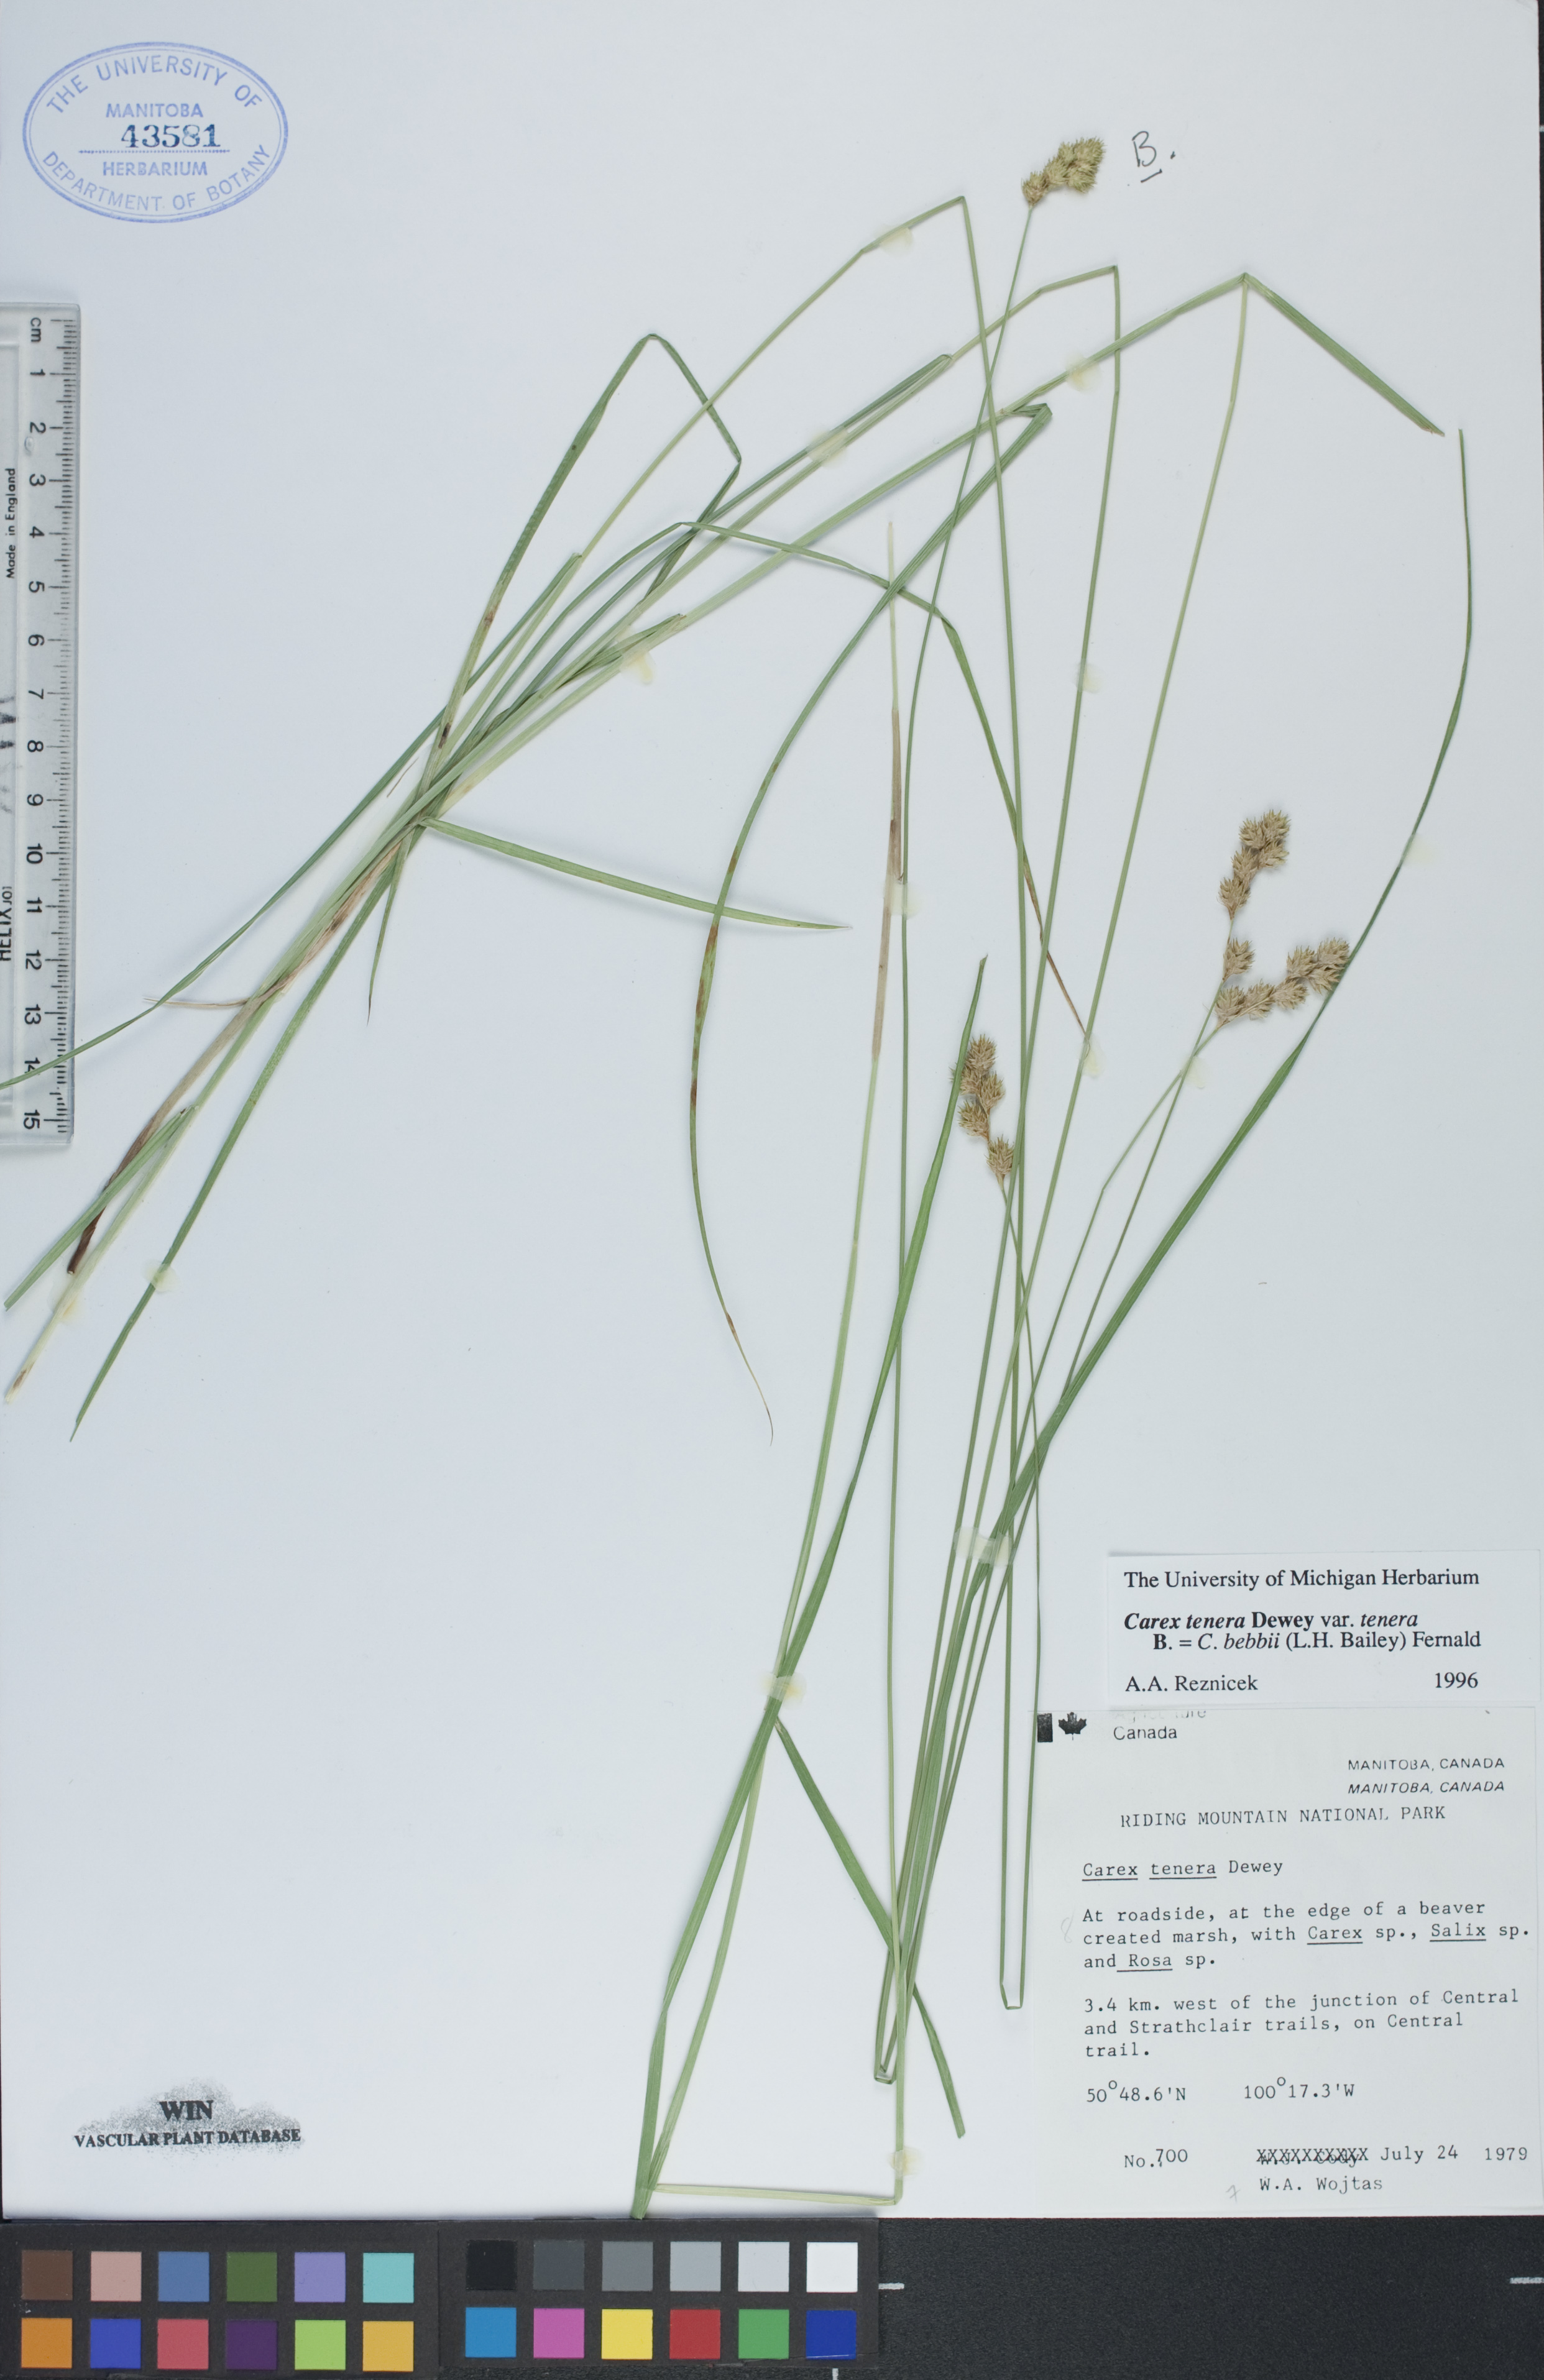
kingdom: Plantae
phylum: Tracheophyta
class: Liliopsida
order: Poales
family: Cyperaceae
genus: Carex
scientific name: Carex bebbii
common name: Bebb's sedge
